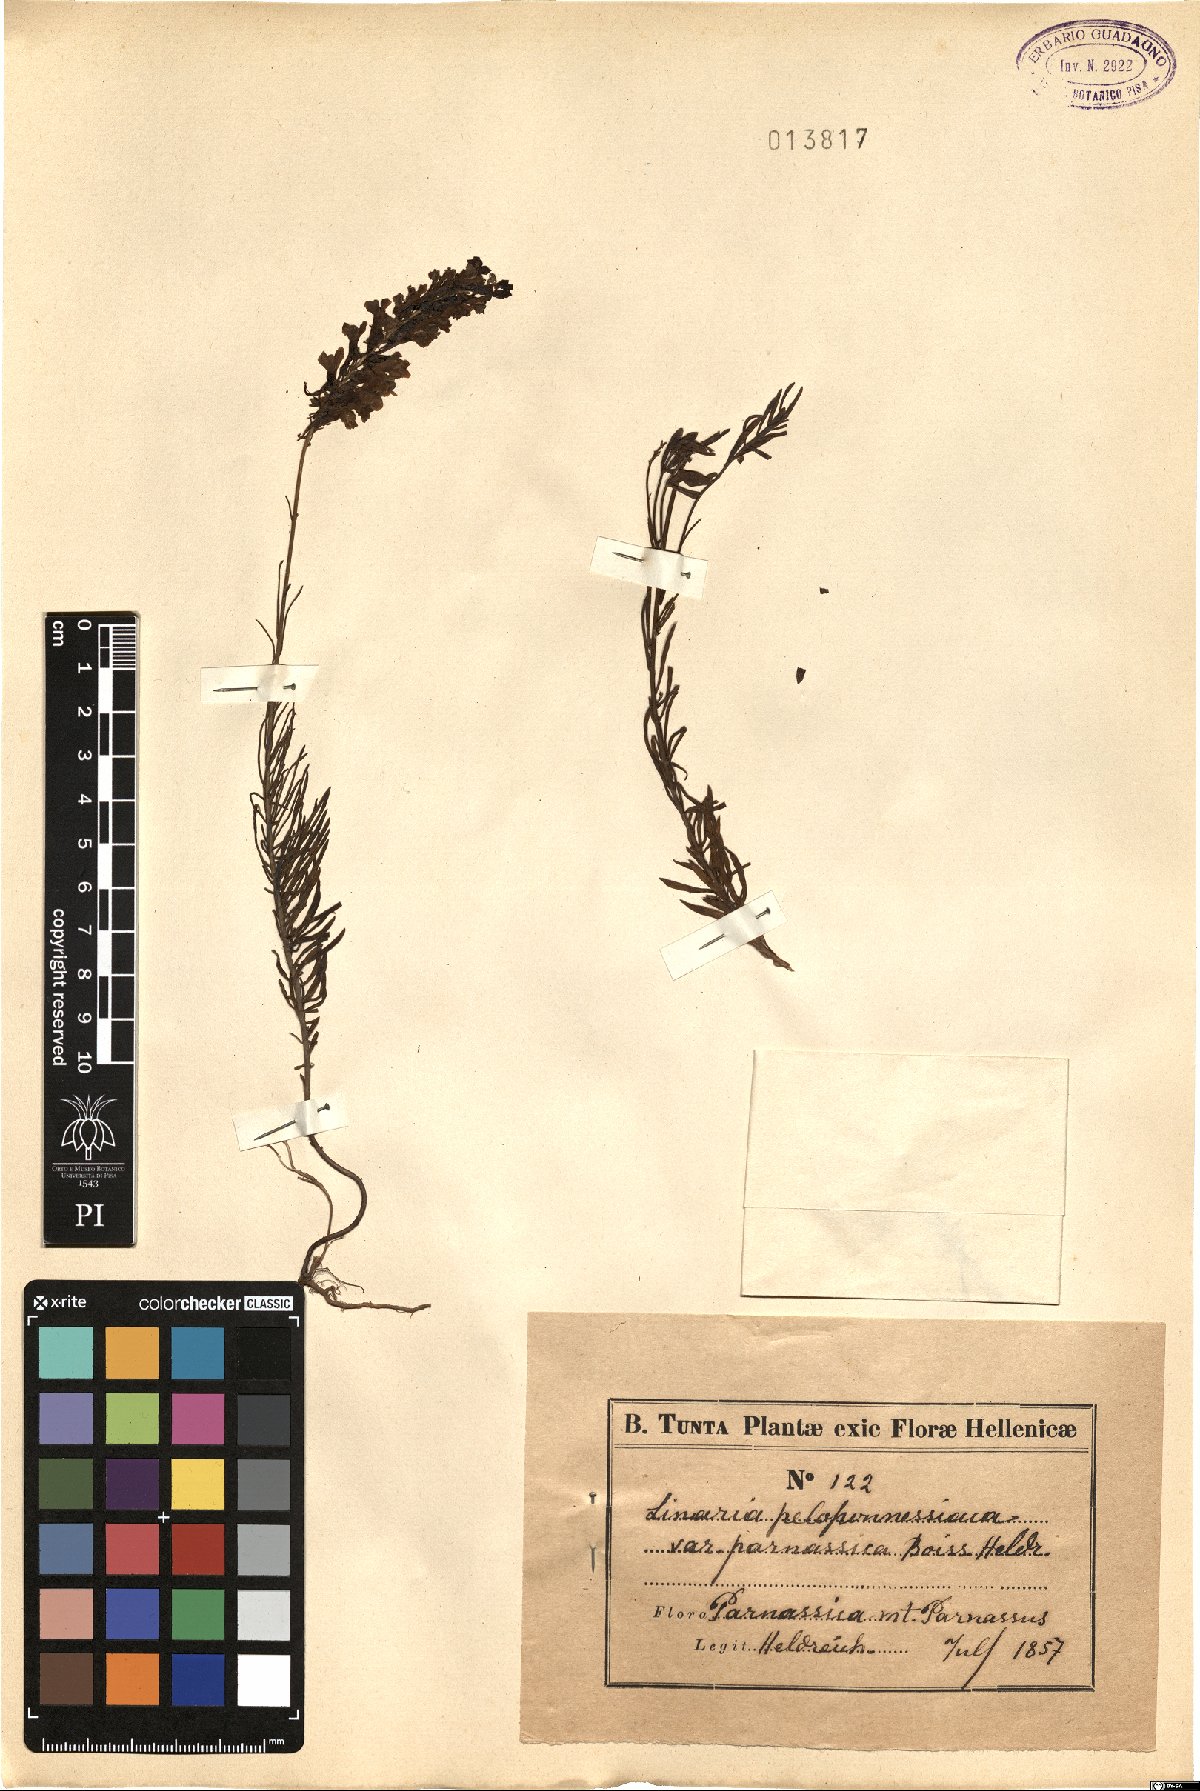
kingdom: Plantae
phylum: Tracheophyta
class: Magnoliopsida
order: Lamiales
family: Plantaginaceae
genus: Linaria
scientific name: Linaria peloponnesiaca
